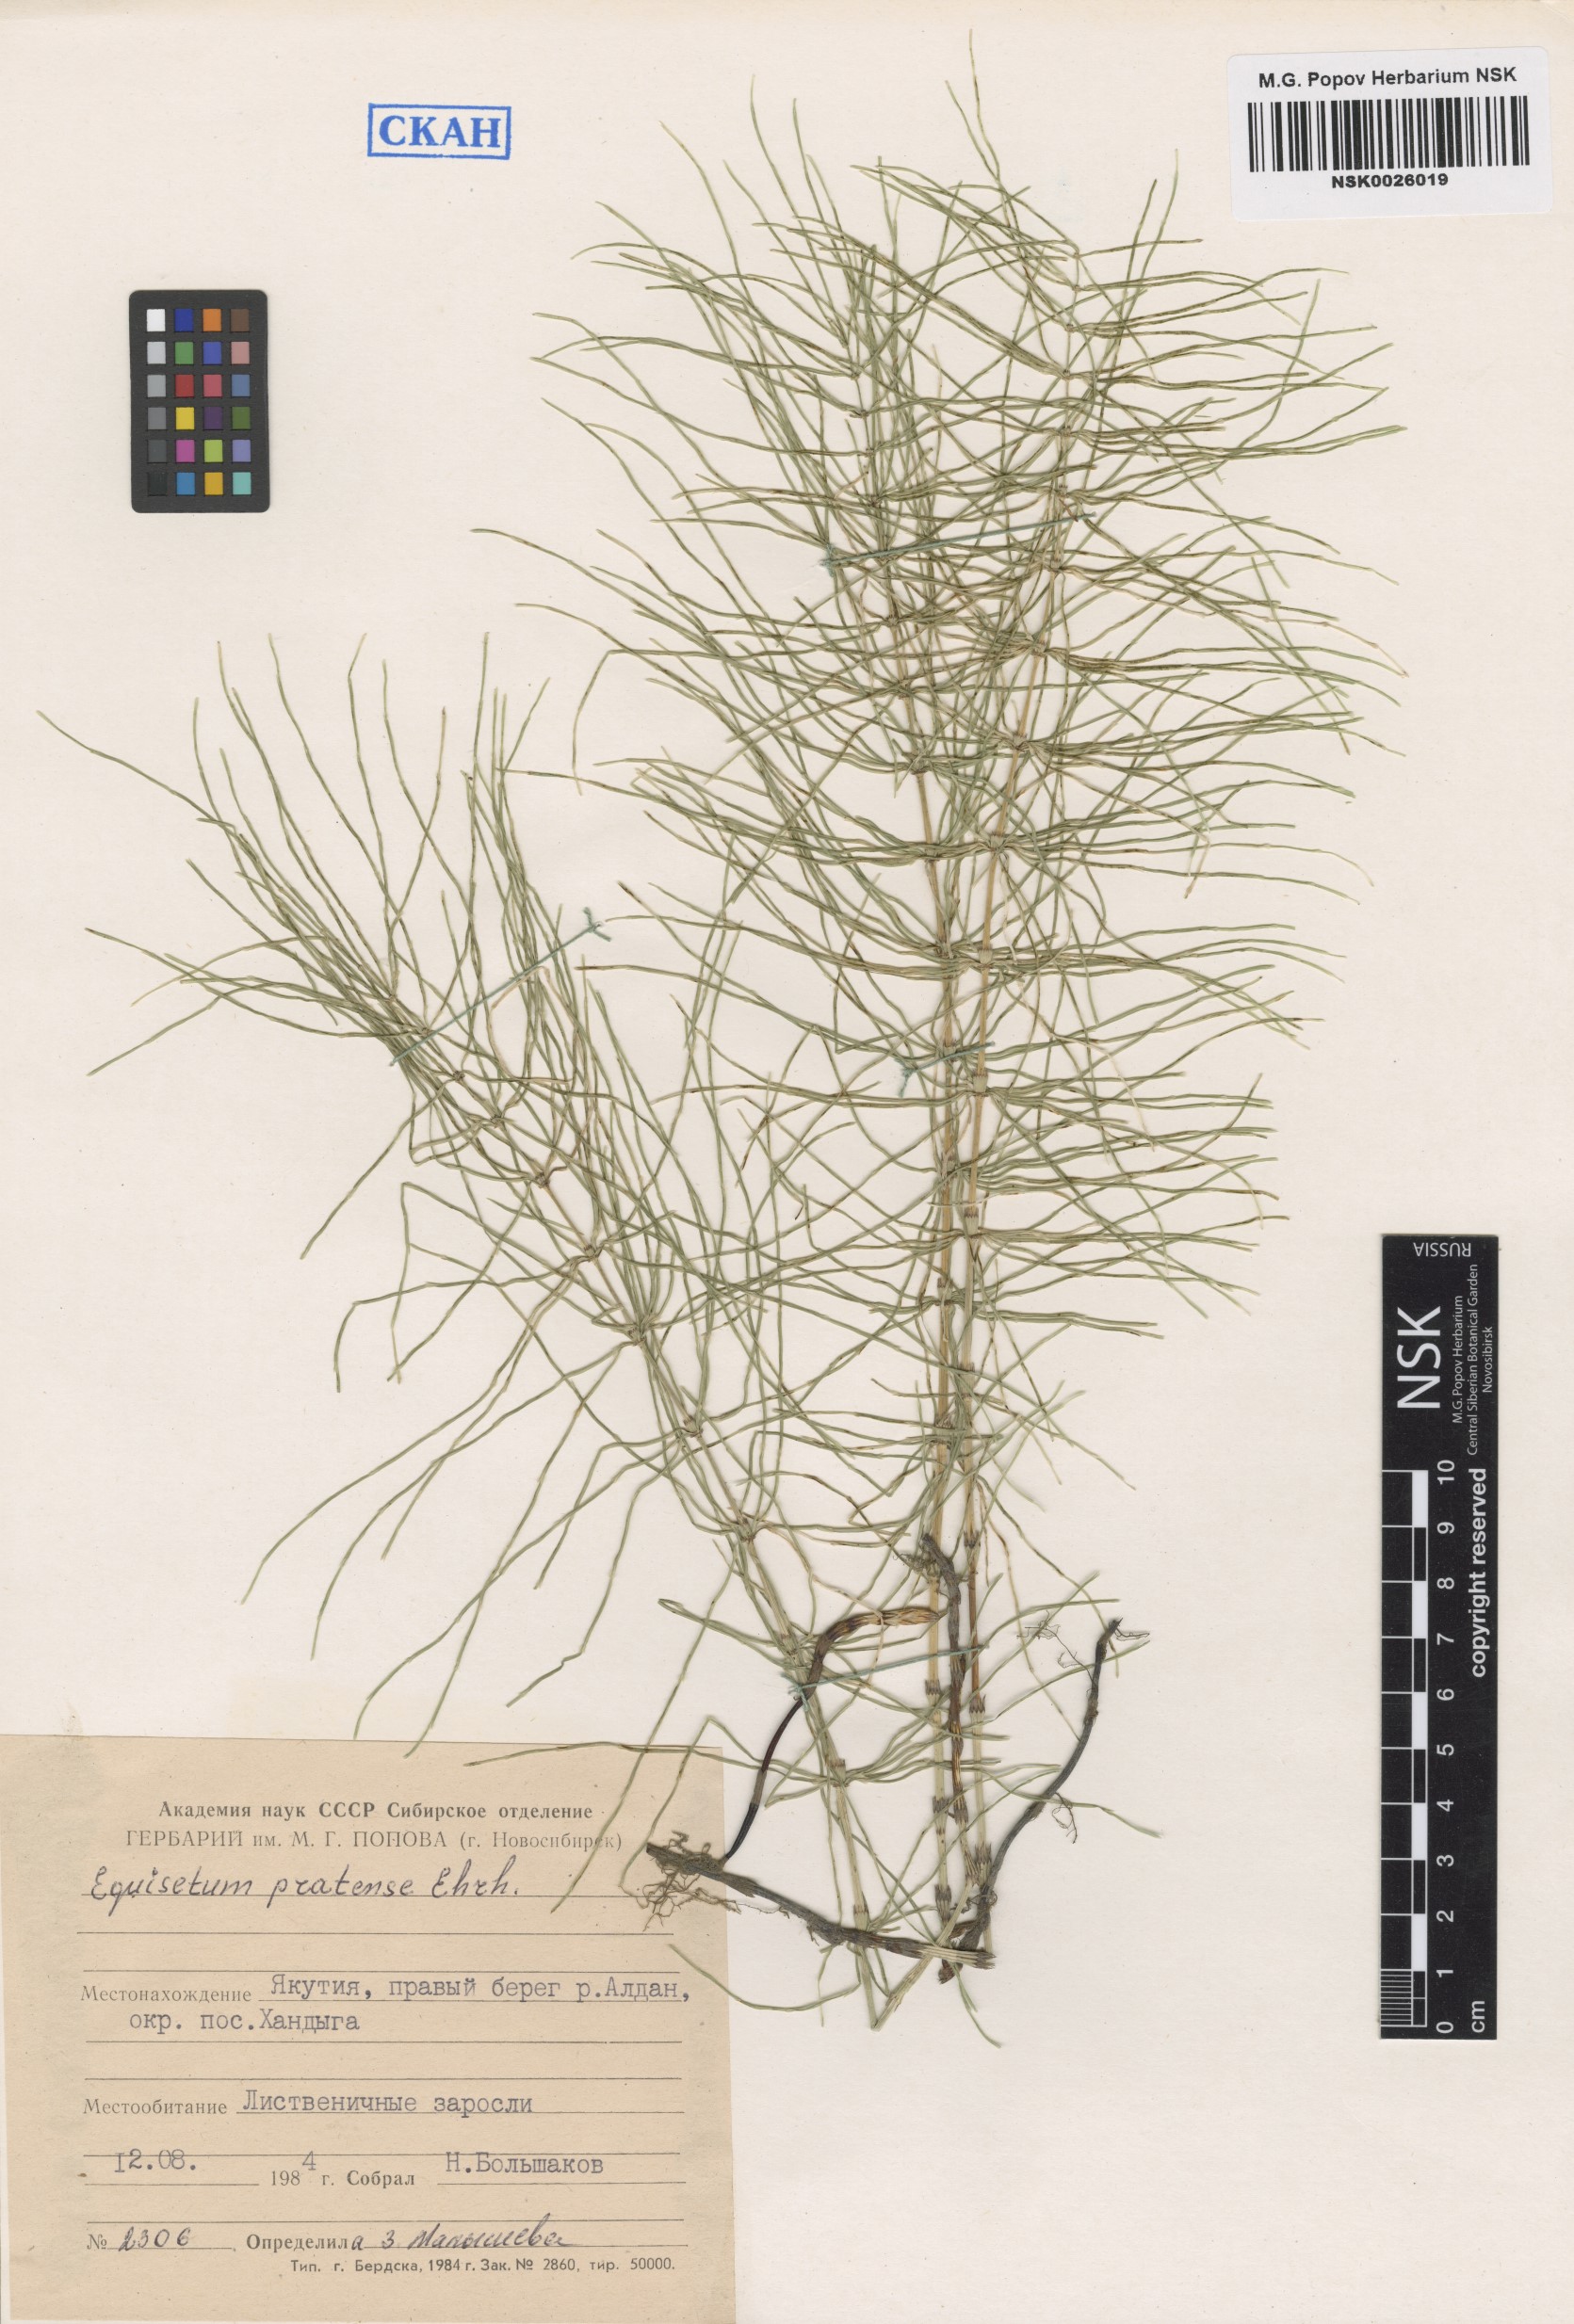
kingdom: Plantae
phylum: Tracheophyta
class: Polypodiopsida
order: Equisetales
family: Equisetaceae
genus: Equisetum
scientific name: Equisetum pratense
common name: Meadow horsetail
